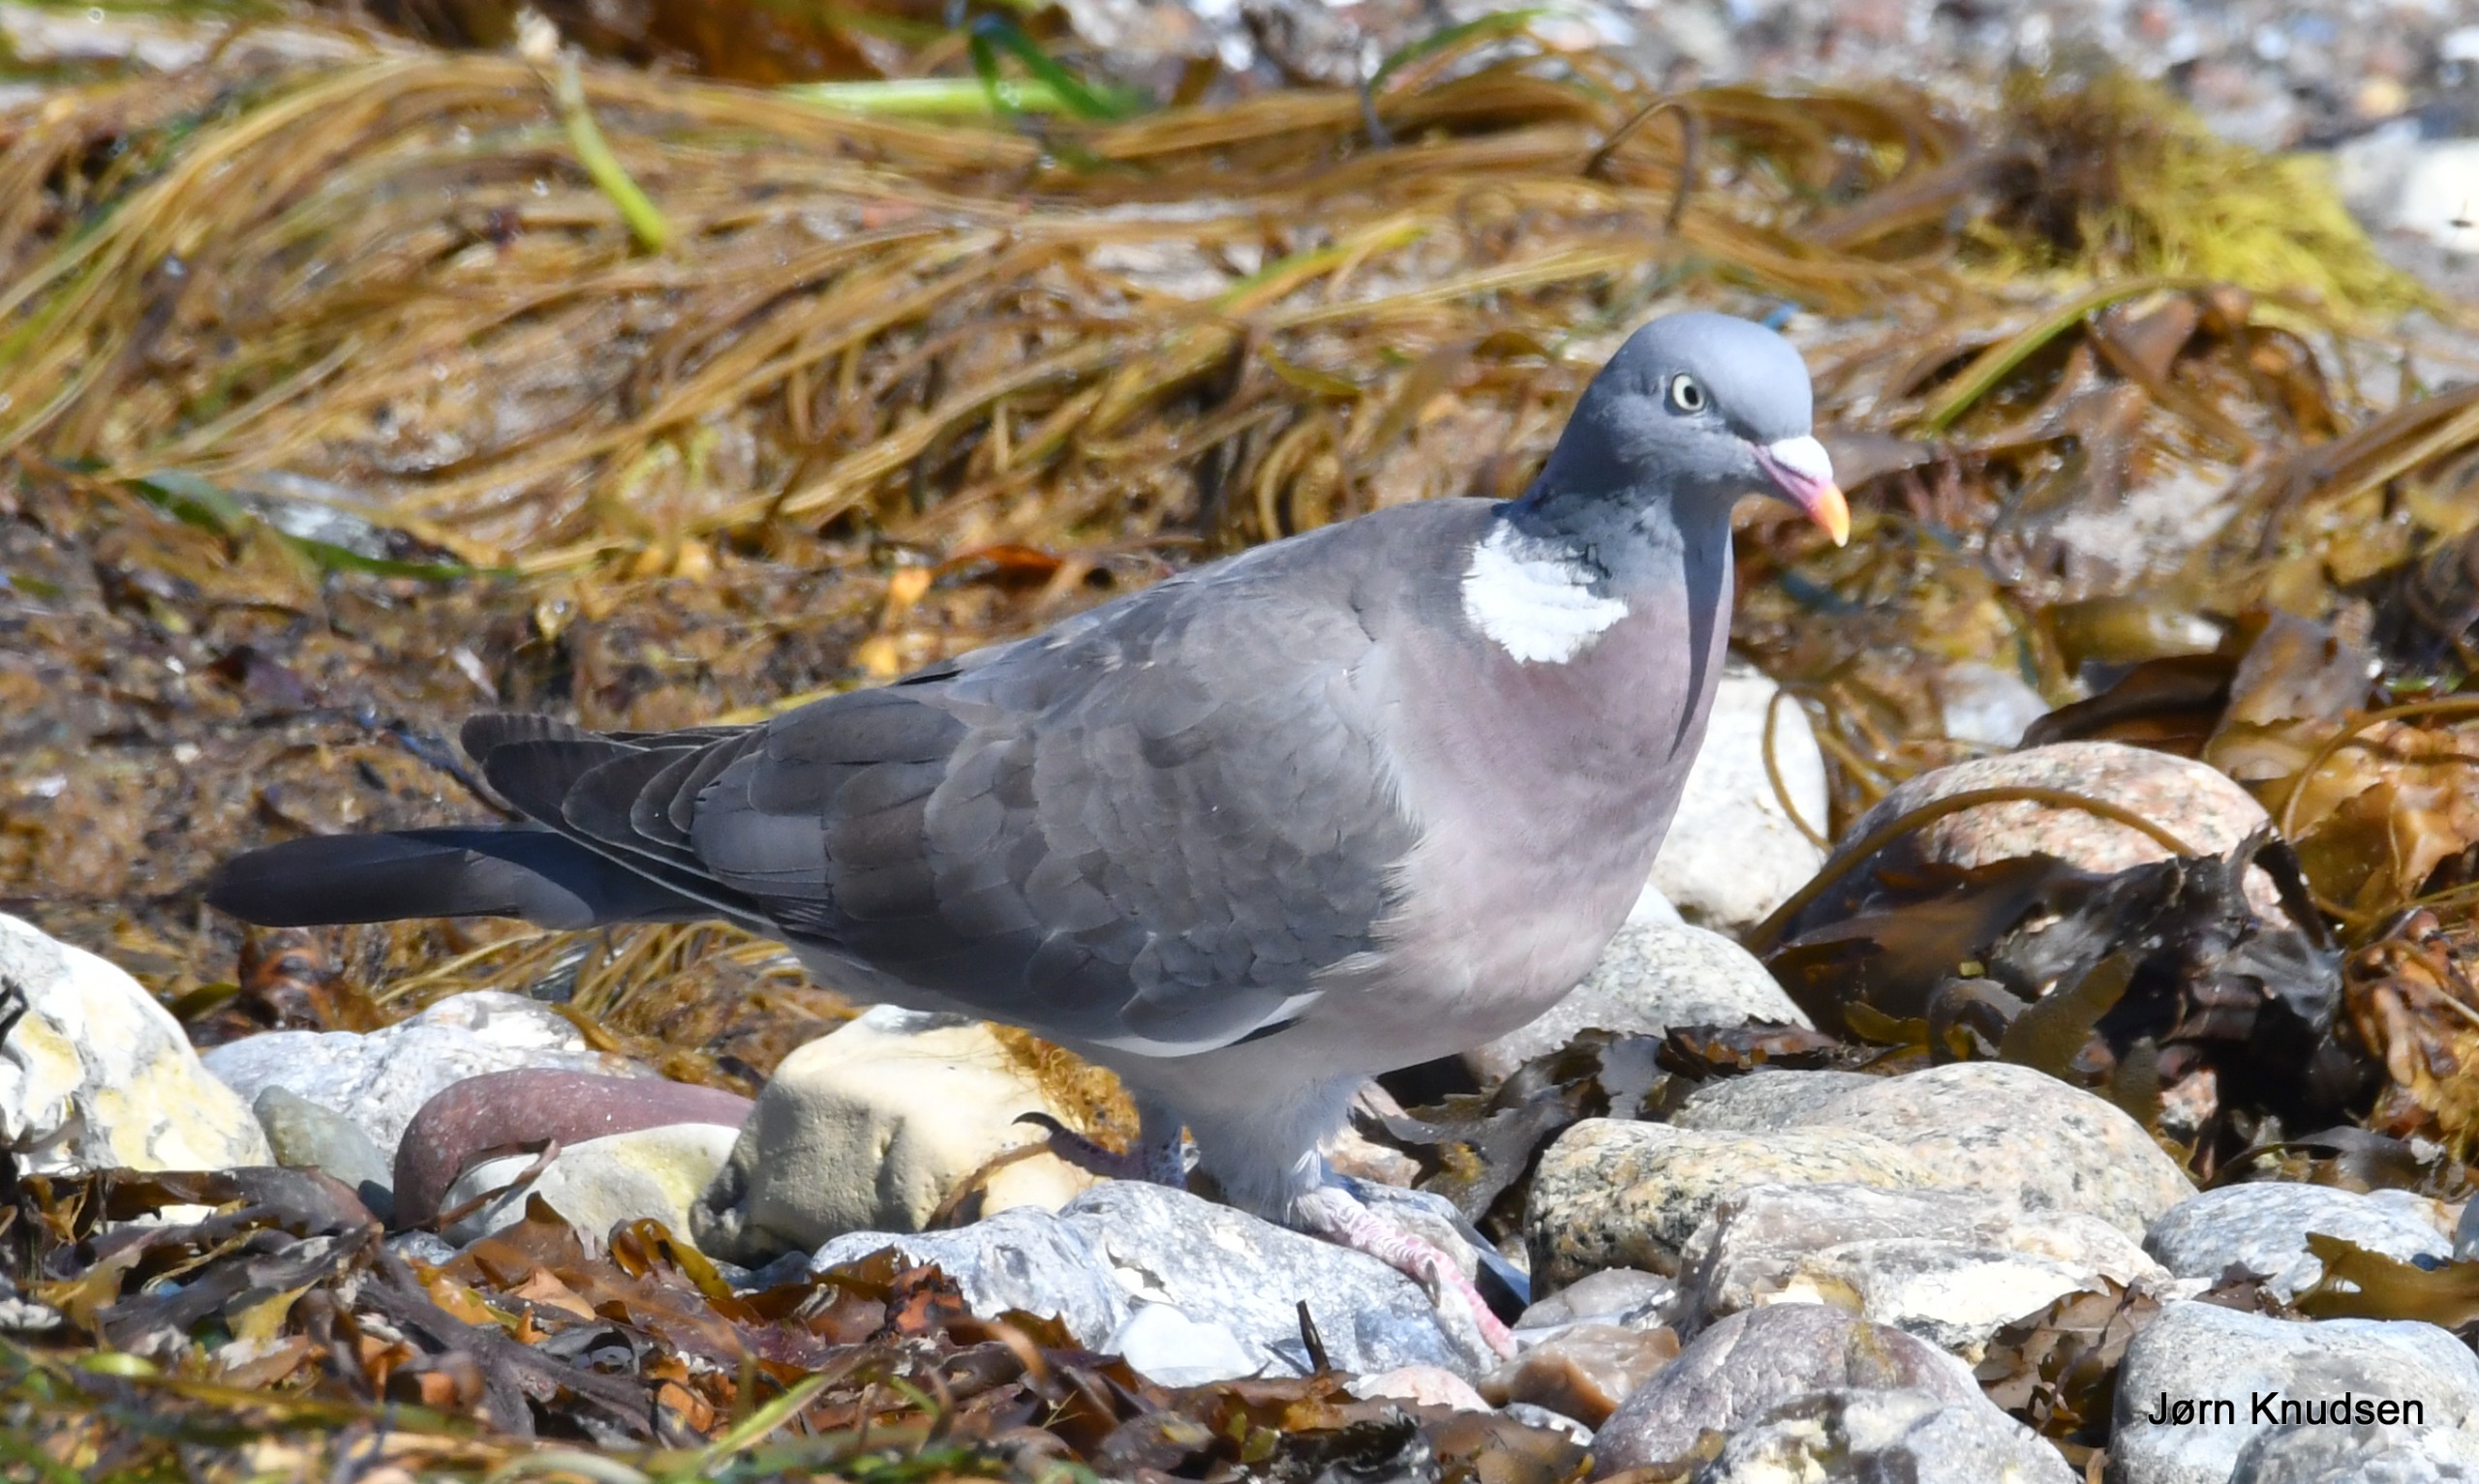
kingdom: Animalia
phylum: Chordata
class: Aves
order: Columbiformes
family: Columbidae
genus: Columba
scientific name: Columba palumbus
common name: Ringdue
